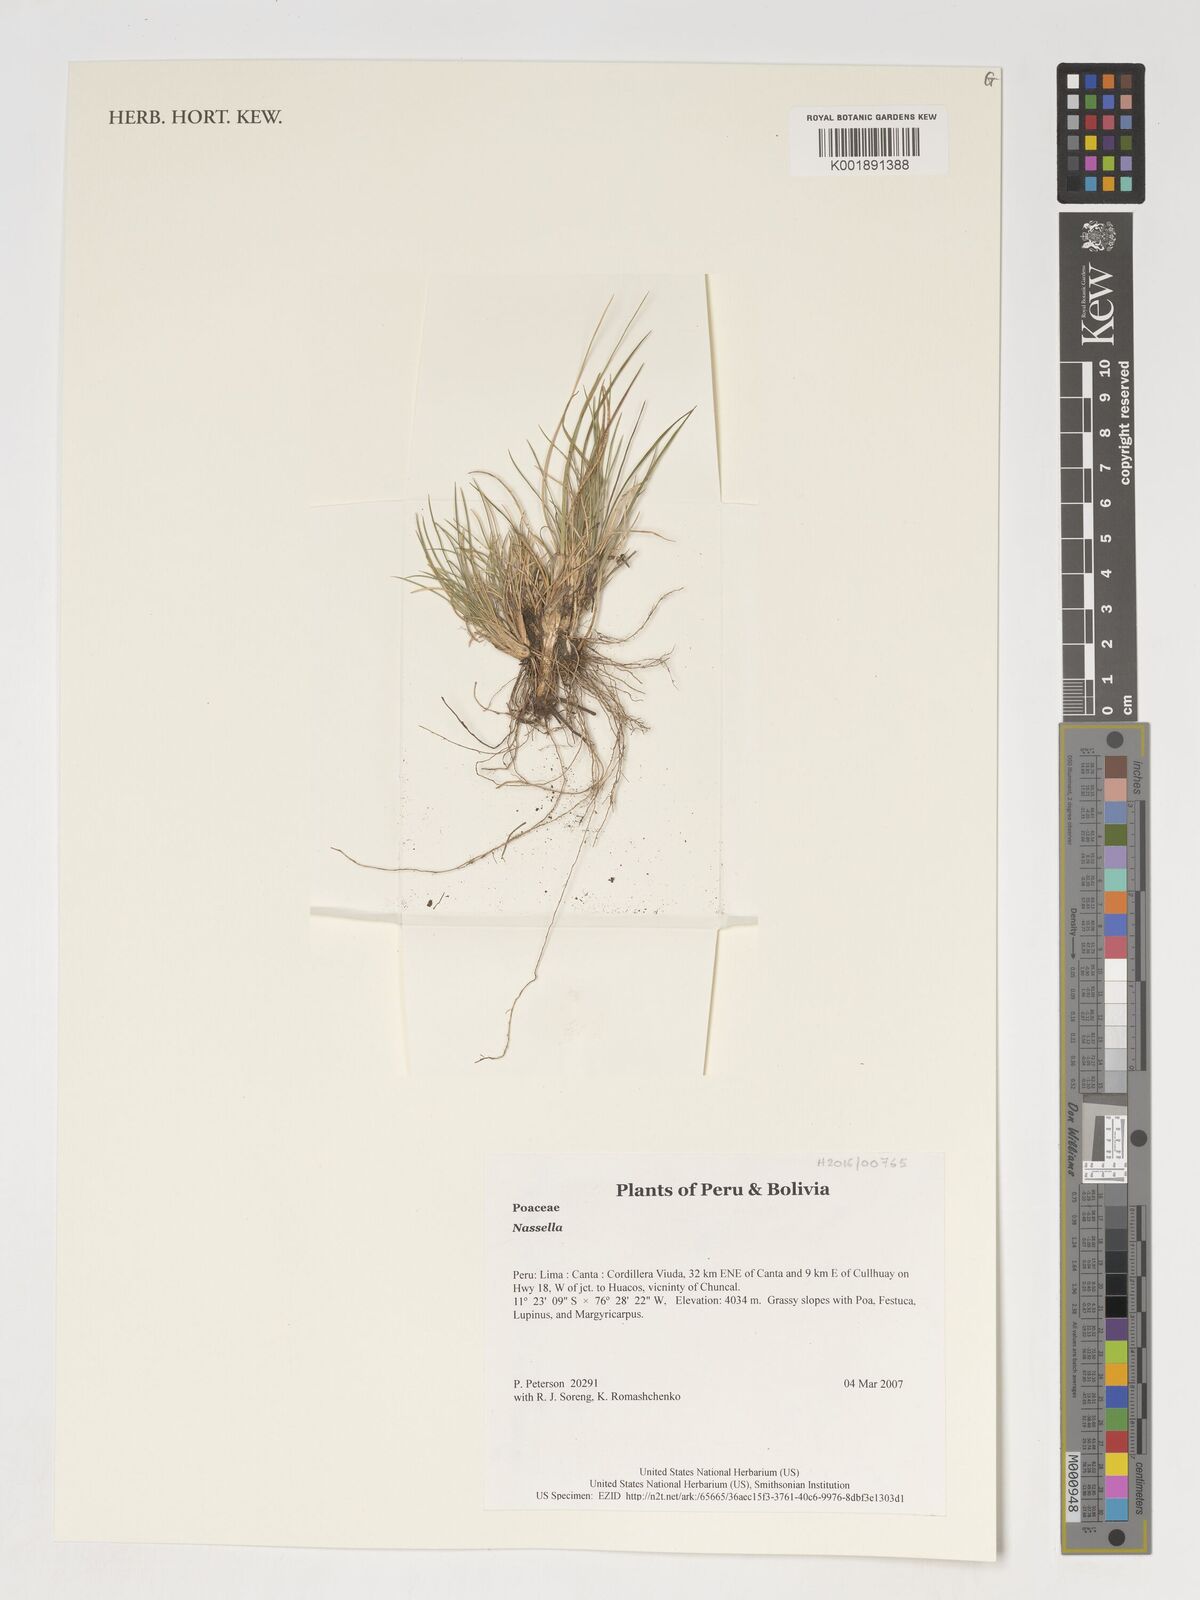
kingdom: Plantae
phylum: Tracheophyta
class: Liliopsida
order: Poales
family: Poaceae
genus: Nassella
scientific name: Nassella
